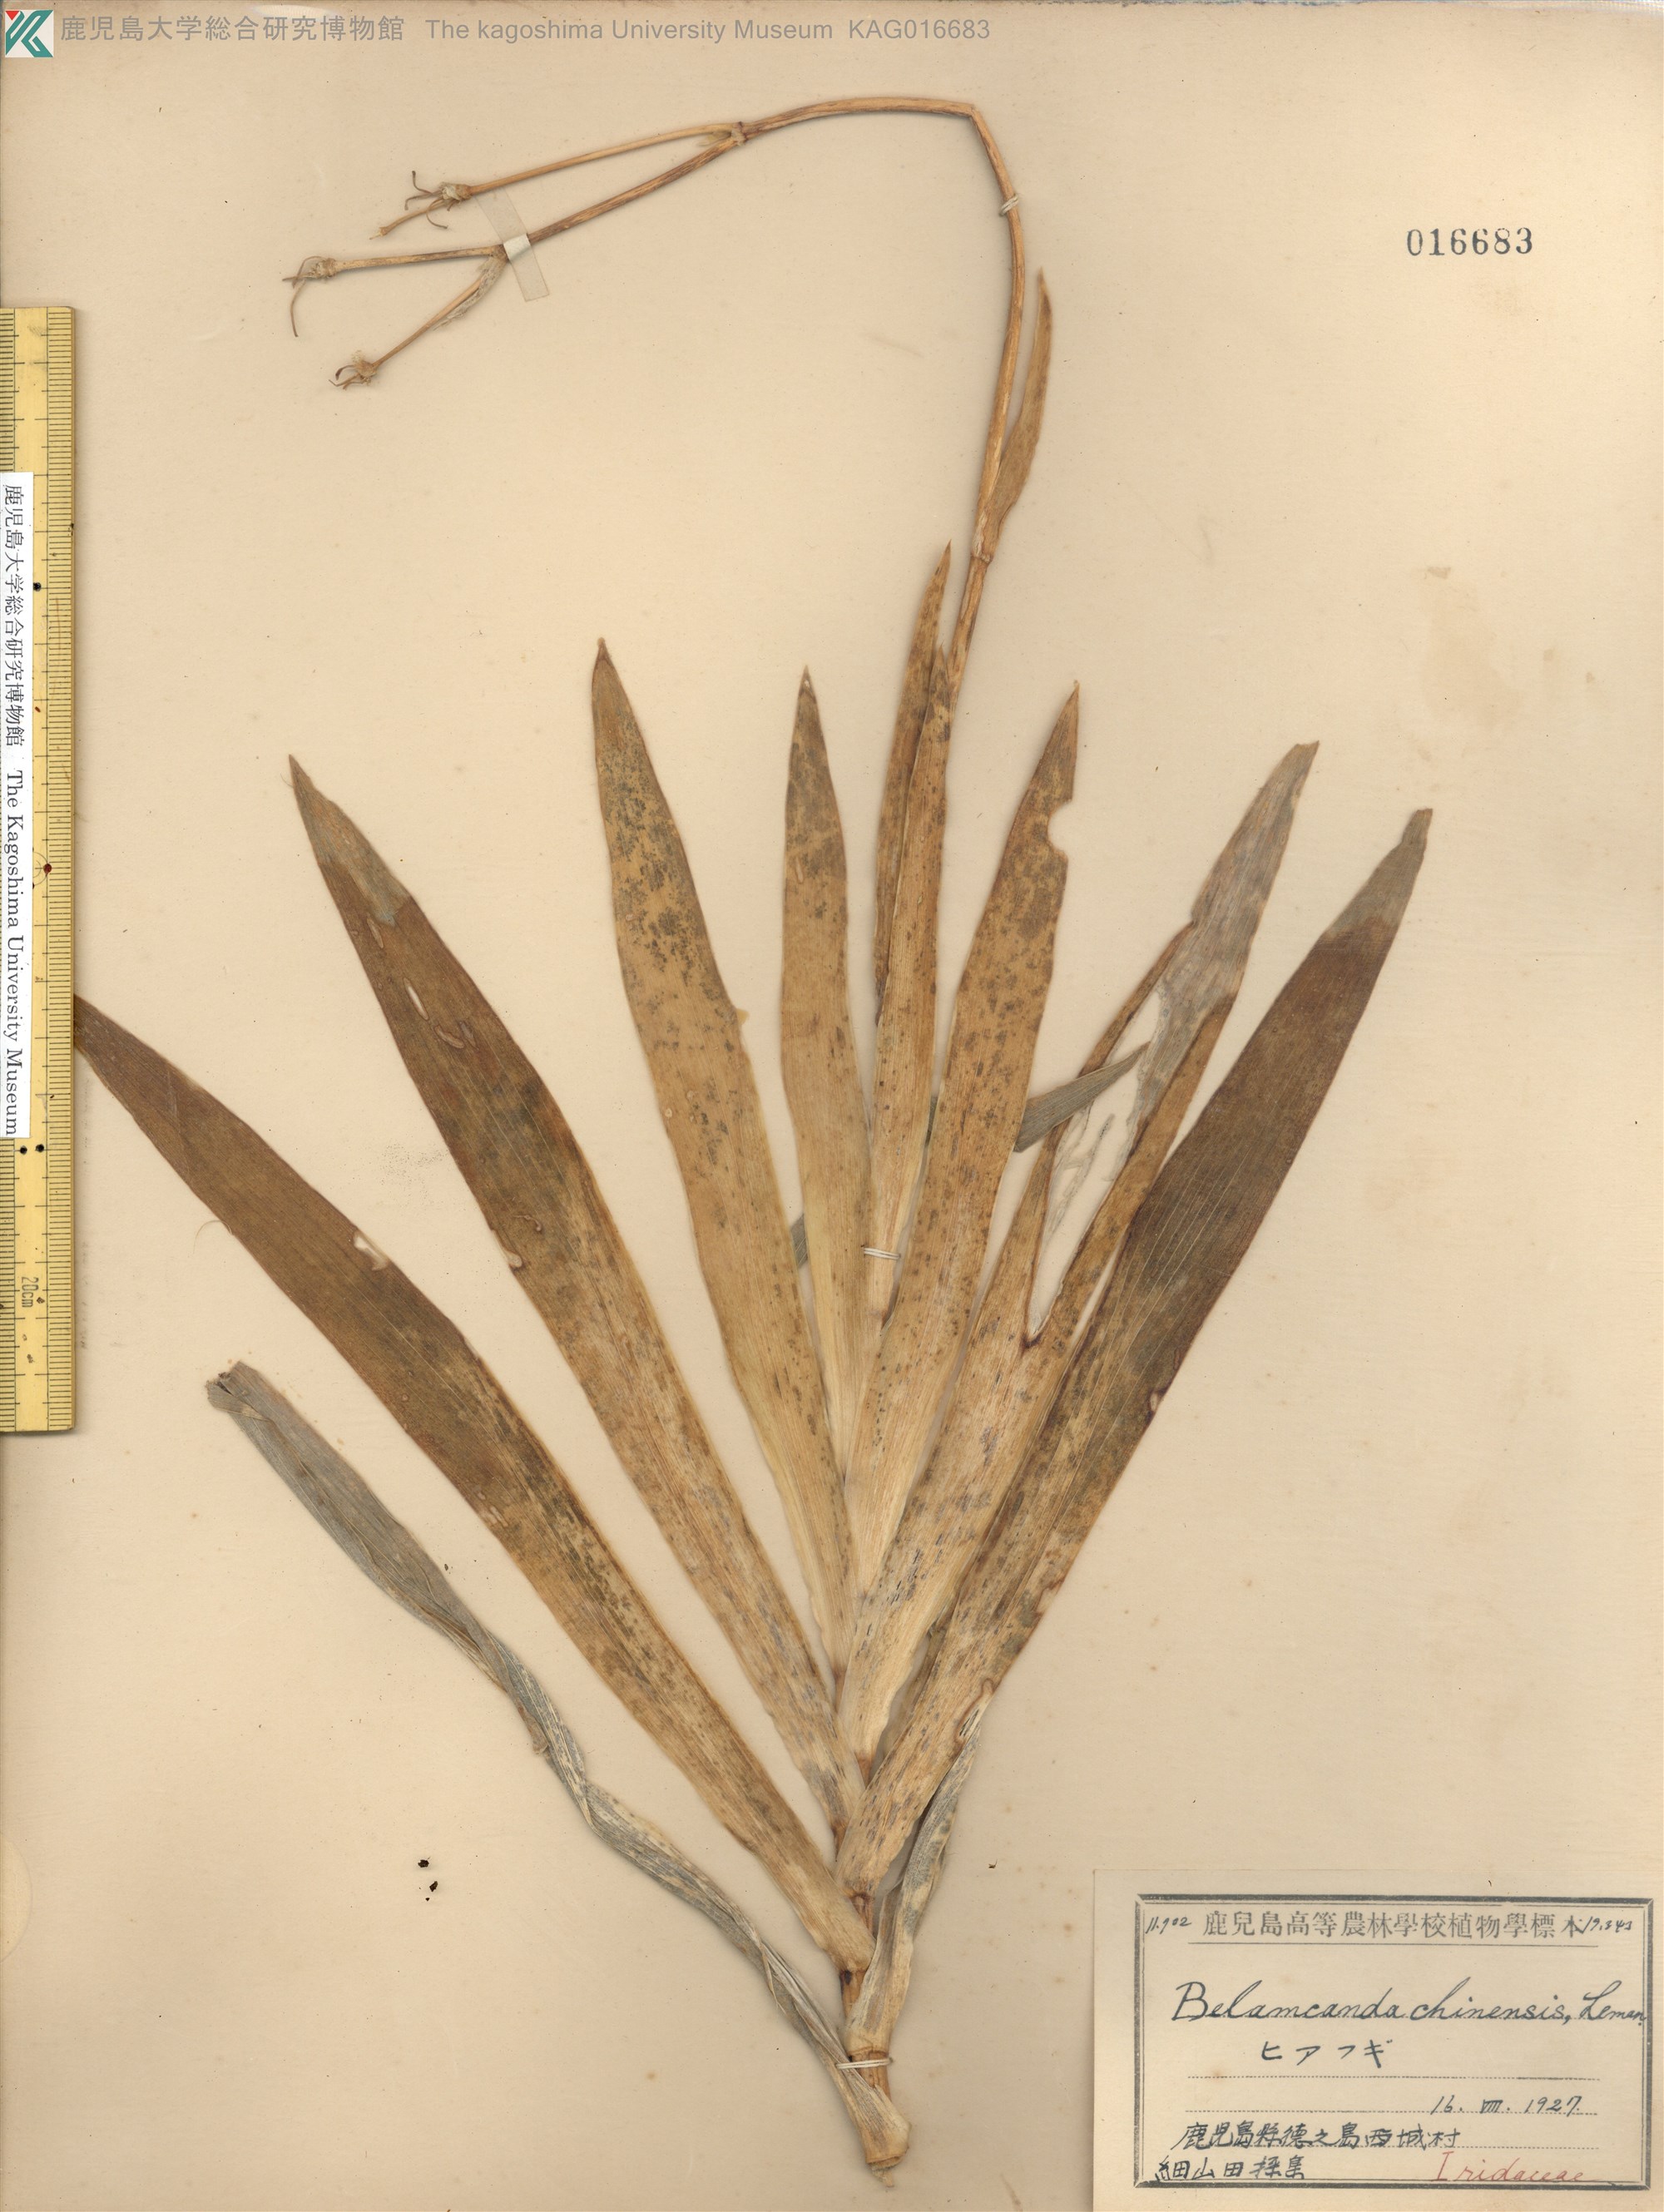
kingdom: Plantae
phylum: Tracheophyta
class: Liliopsida
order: Asparagales
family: Iridaceae
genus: Iris
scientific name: Iris domestica
